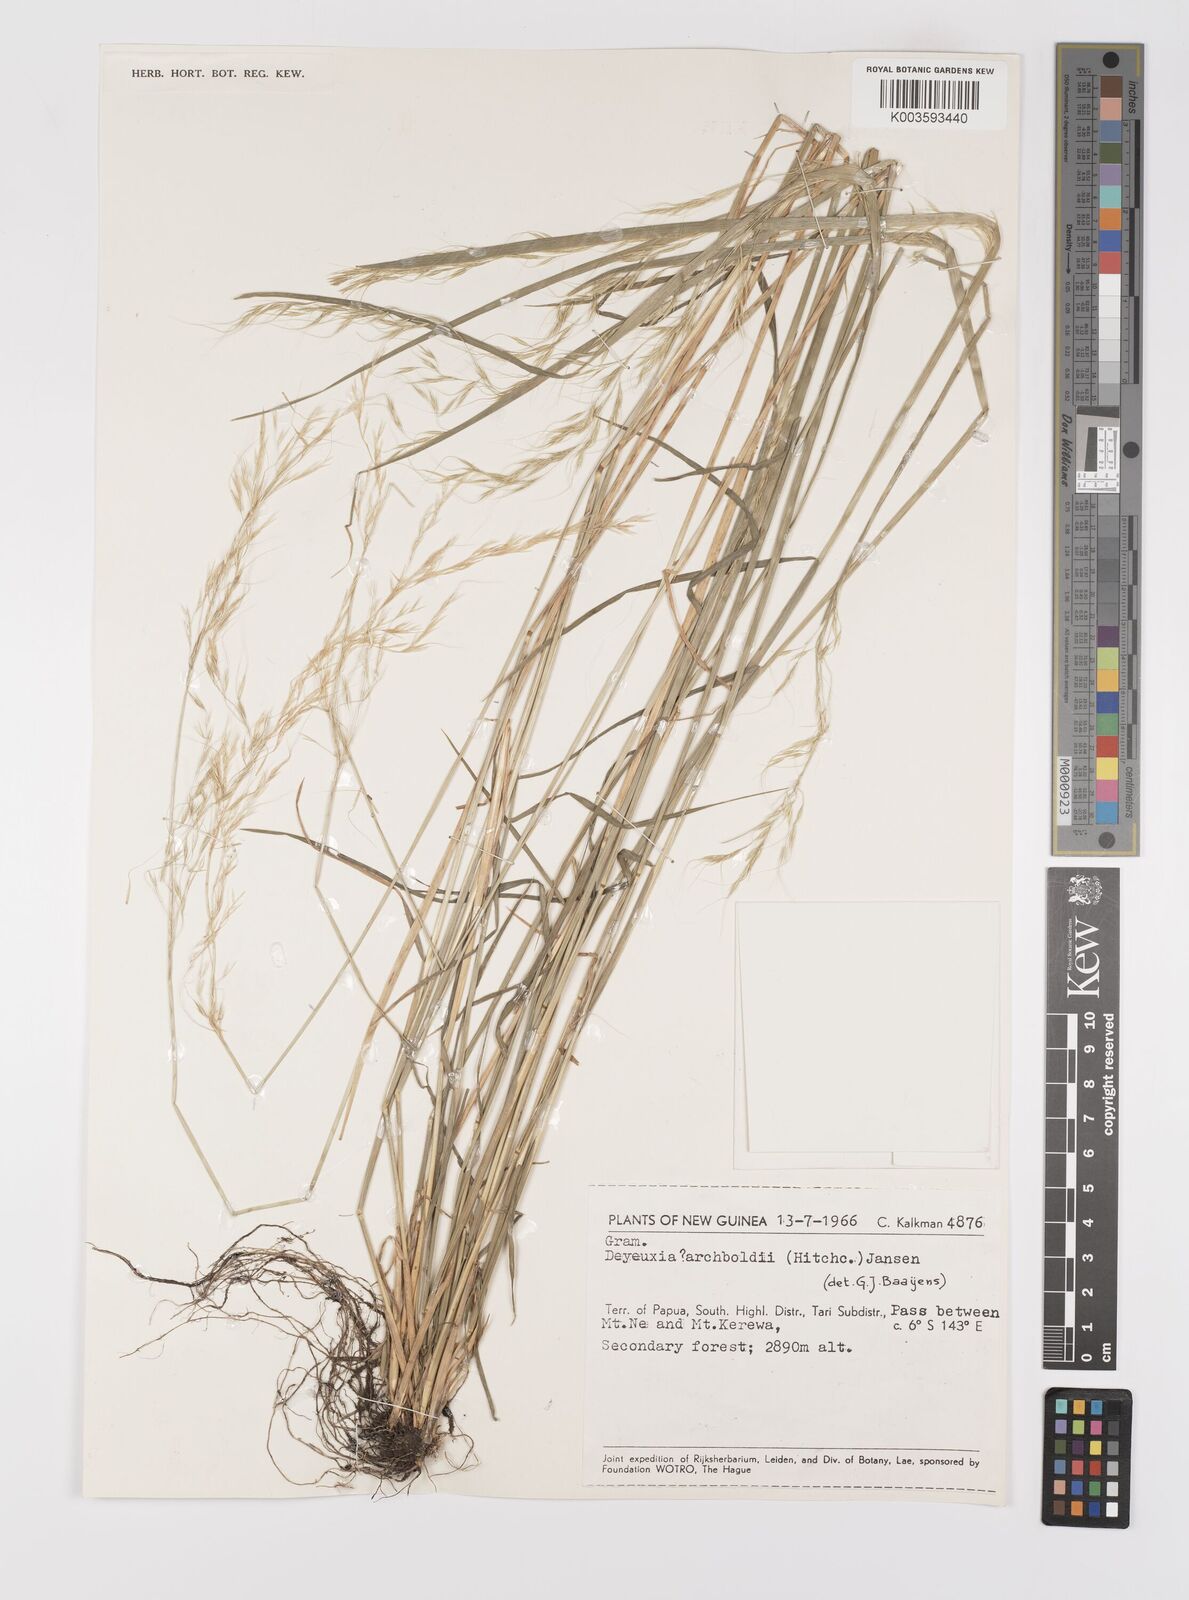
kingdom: Plantae
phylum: Tracheophyta
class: Liliopsida
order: Poales
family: Poaceae
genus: Dichelachne
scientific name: Dichelachne rara
